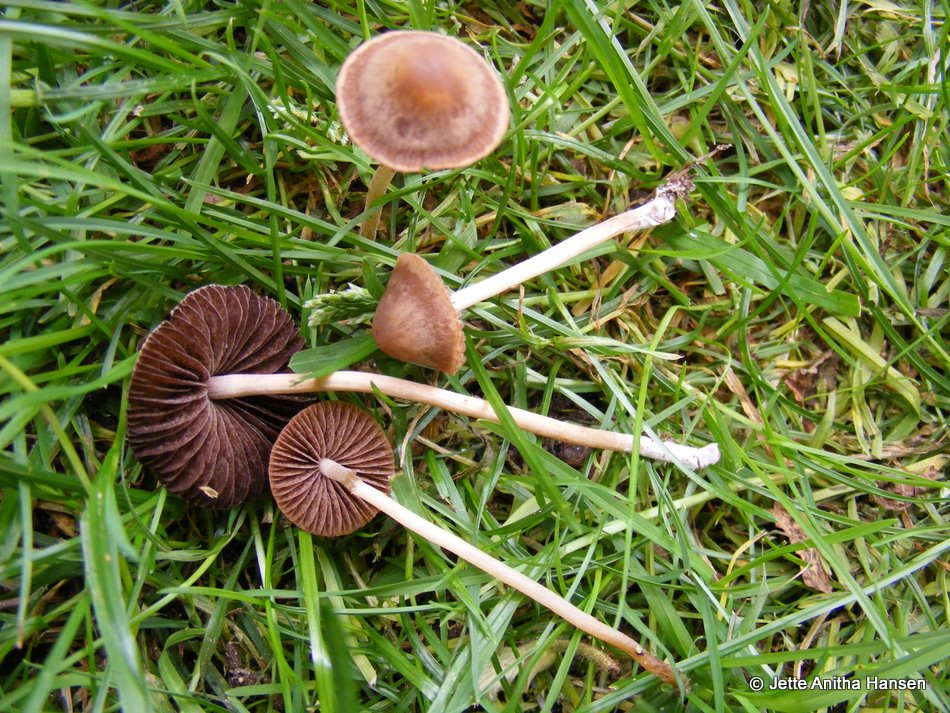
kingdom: Fungi
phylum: Basidiomycota
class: Agaricomycetes
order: Agaricales
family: Bolbitiaceae
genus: Panaeolina
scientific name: Panaeolina foenisecii
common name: høslætsvamp
